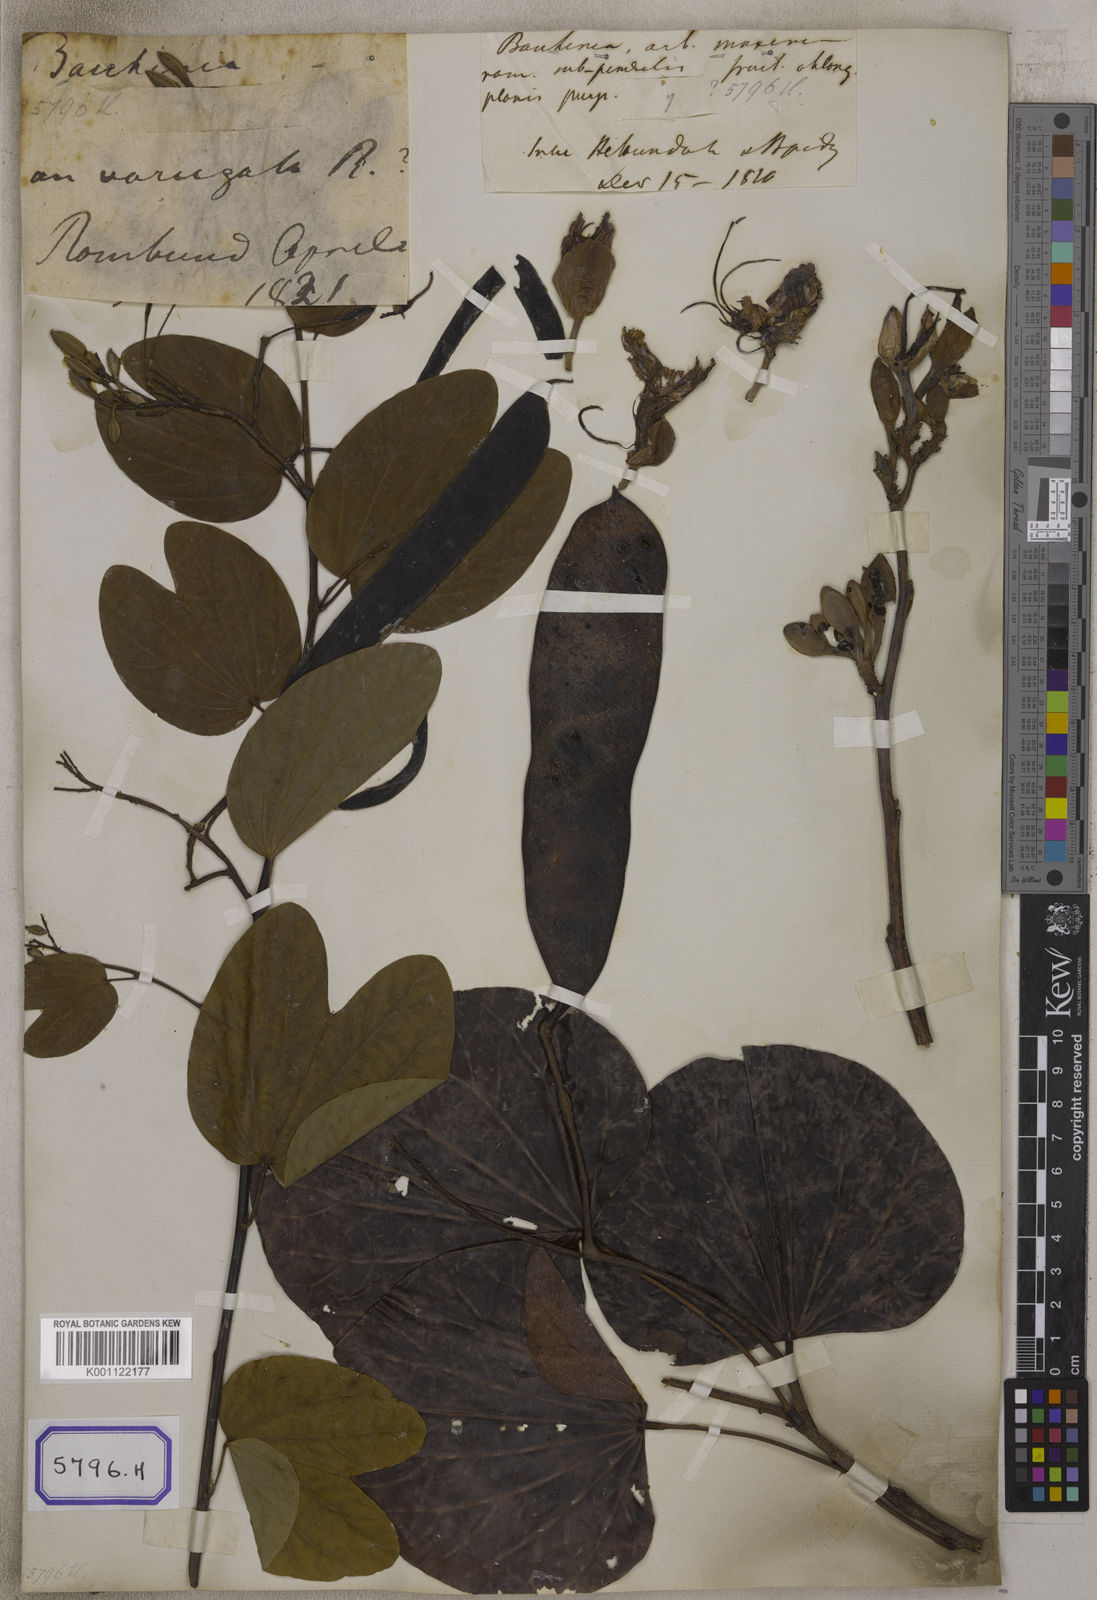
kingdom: Plantae
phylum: Tracheophyta
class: Magnoliopsida
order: Fabales
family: Fabaceae
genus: Bauhinia
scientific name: Bauhinia variegata
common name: Mountain ebony
